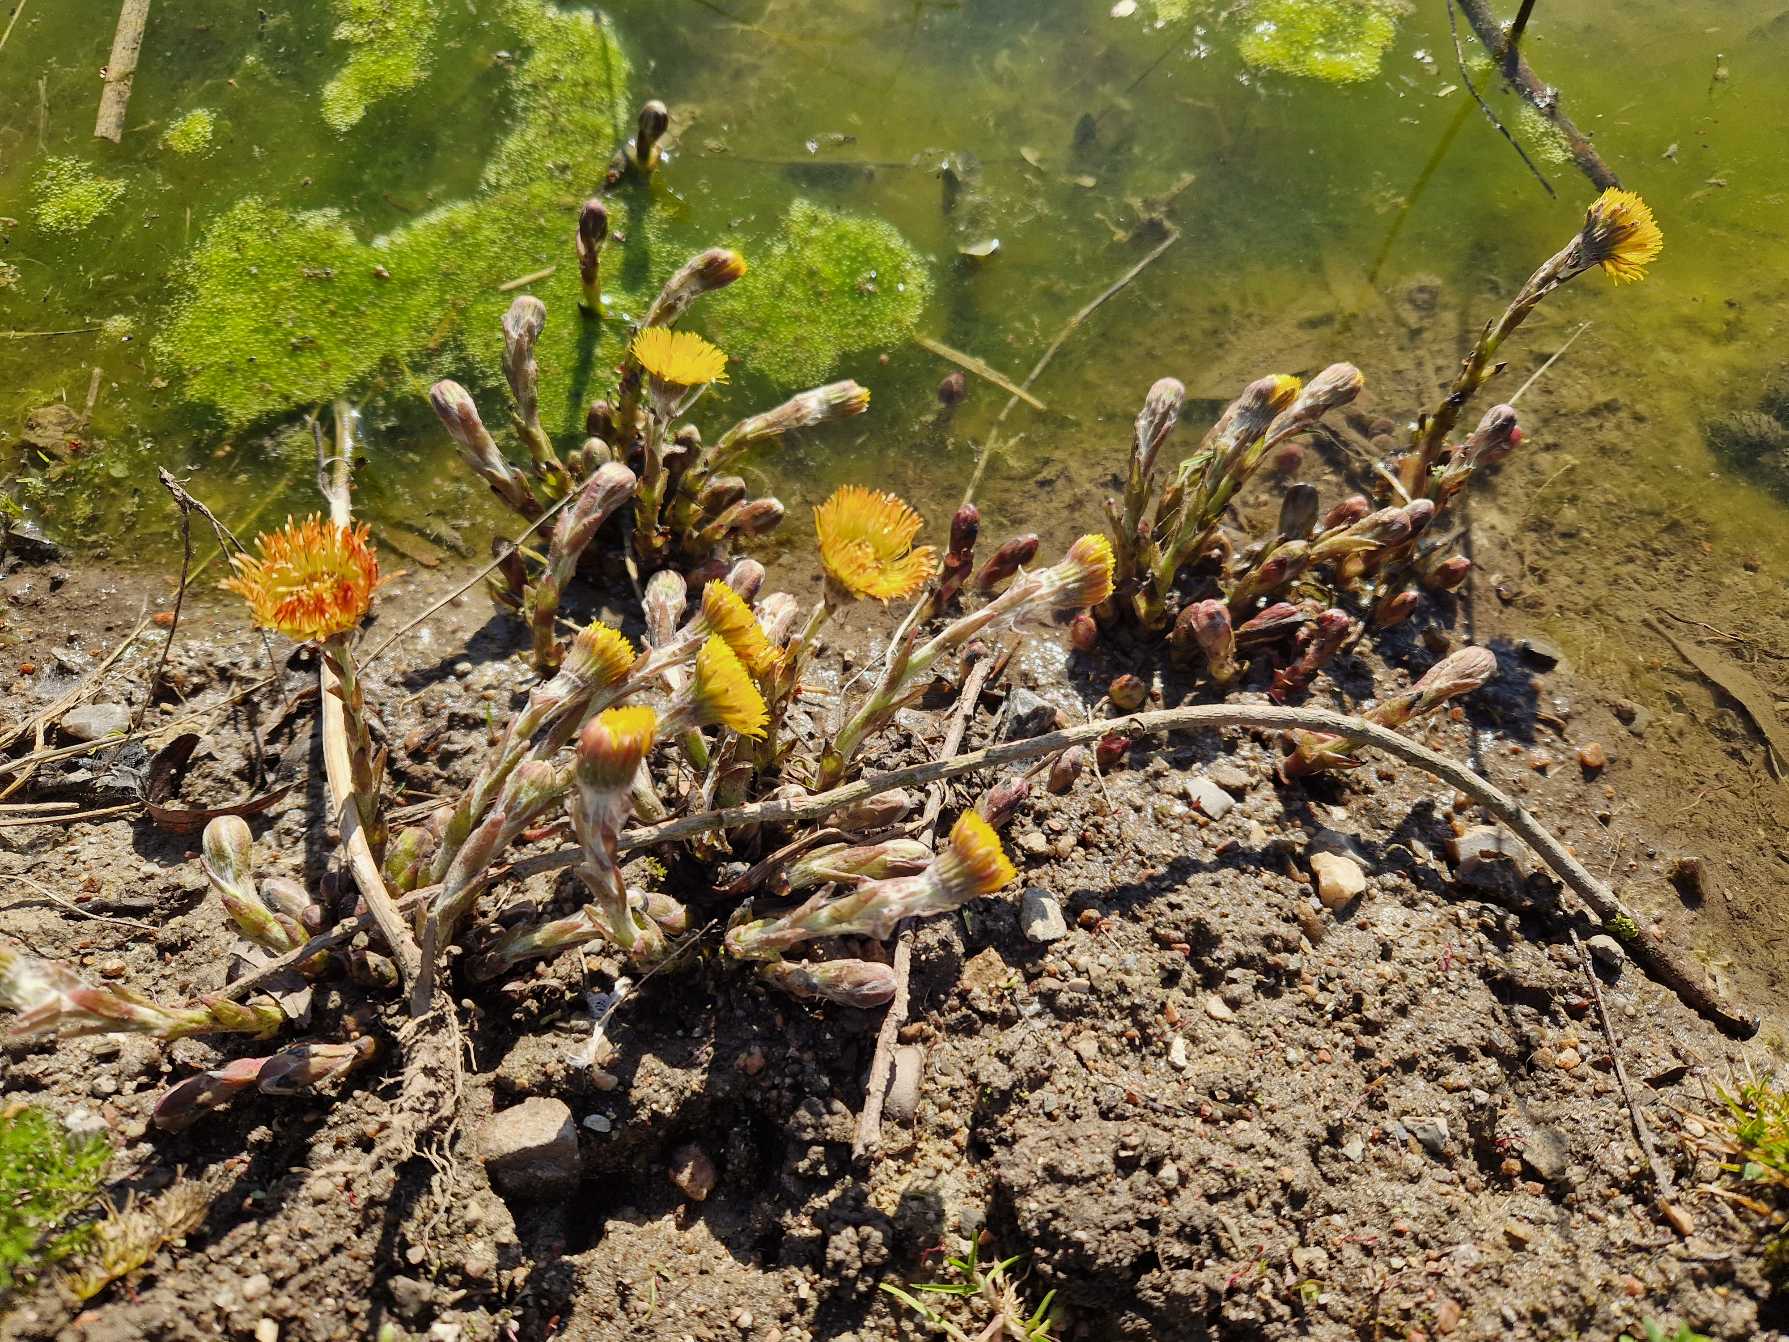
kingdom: Plantae
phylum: Tracheophyta
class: Magnoliopsida
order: Asterales
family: Asteraceae
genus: Tussilago
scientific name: Tussilago farfara
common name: Følfod
